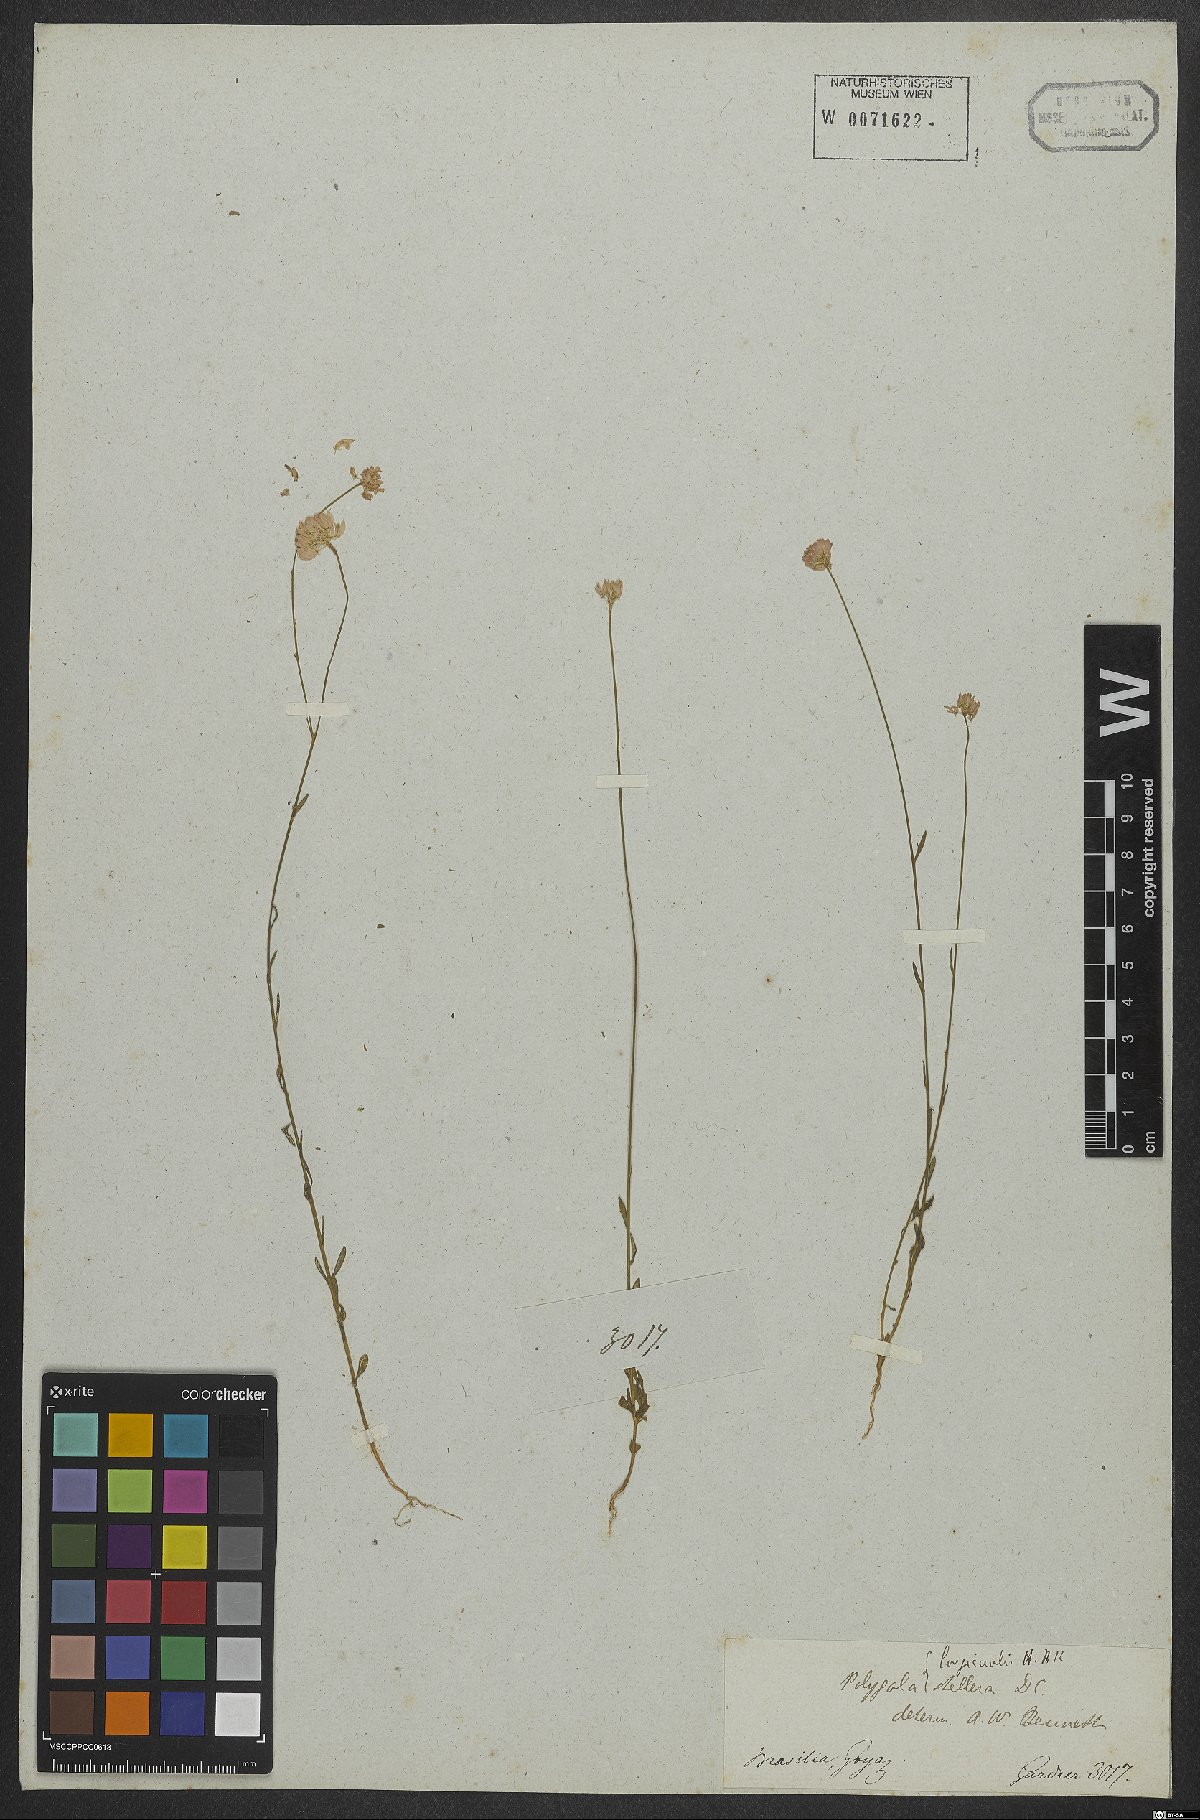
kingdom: Plantae
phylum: Tracheophyta
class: Magnoliopsida
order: Fabales
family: Polygalaceae
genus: Polygala
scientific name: Polygala longicaulis
